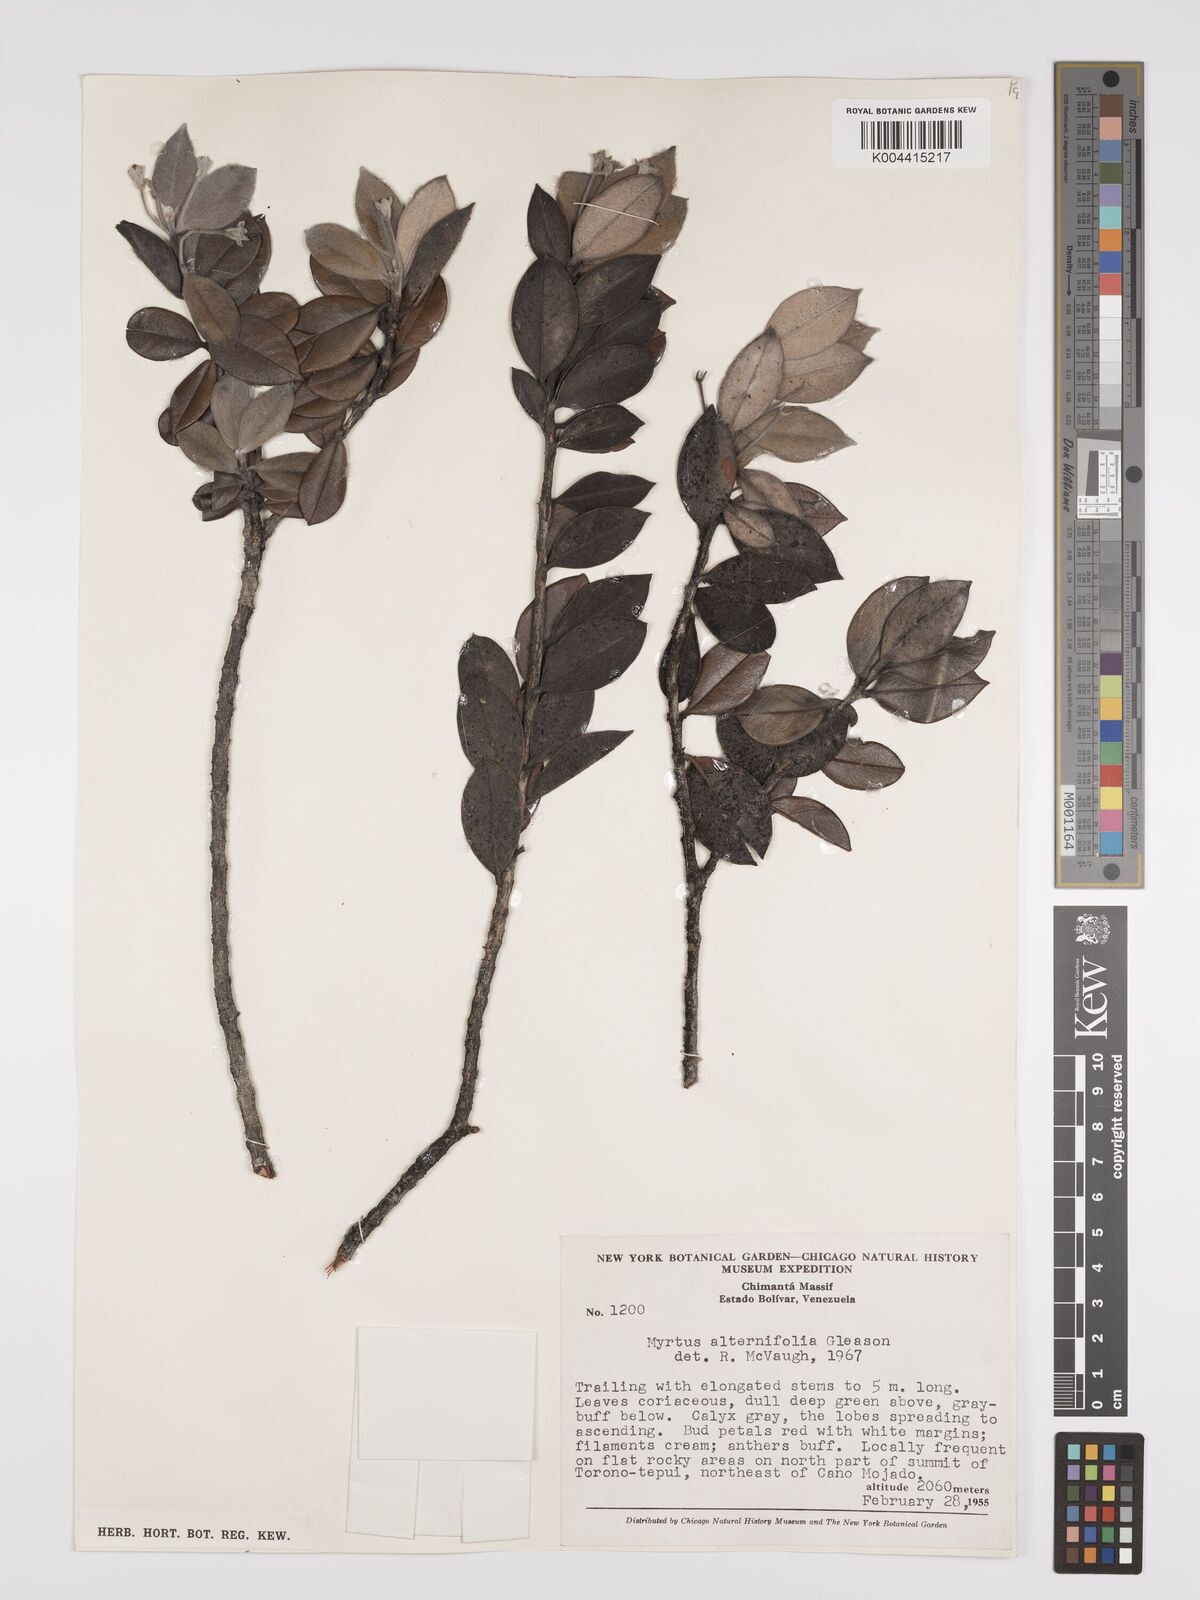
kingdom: Plantae
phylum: Tracheophyta
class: Magnoliopsida
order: Myrtales
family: Myrtaceae
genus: Calycolpus
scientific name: Calycolpus alternifolius
